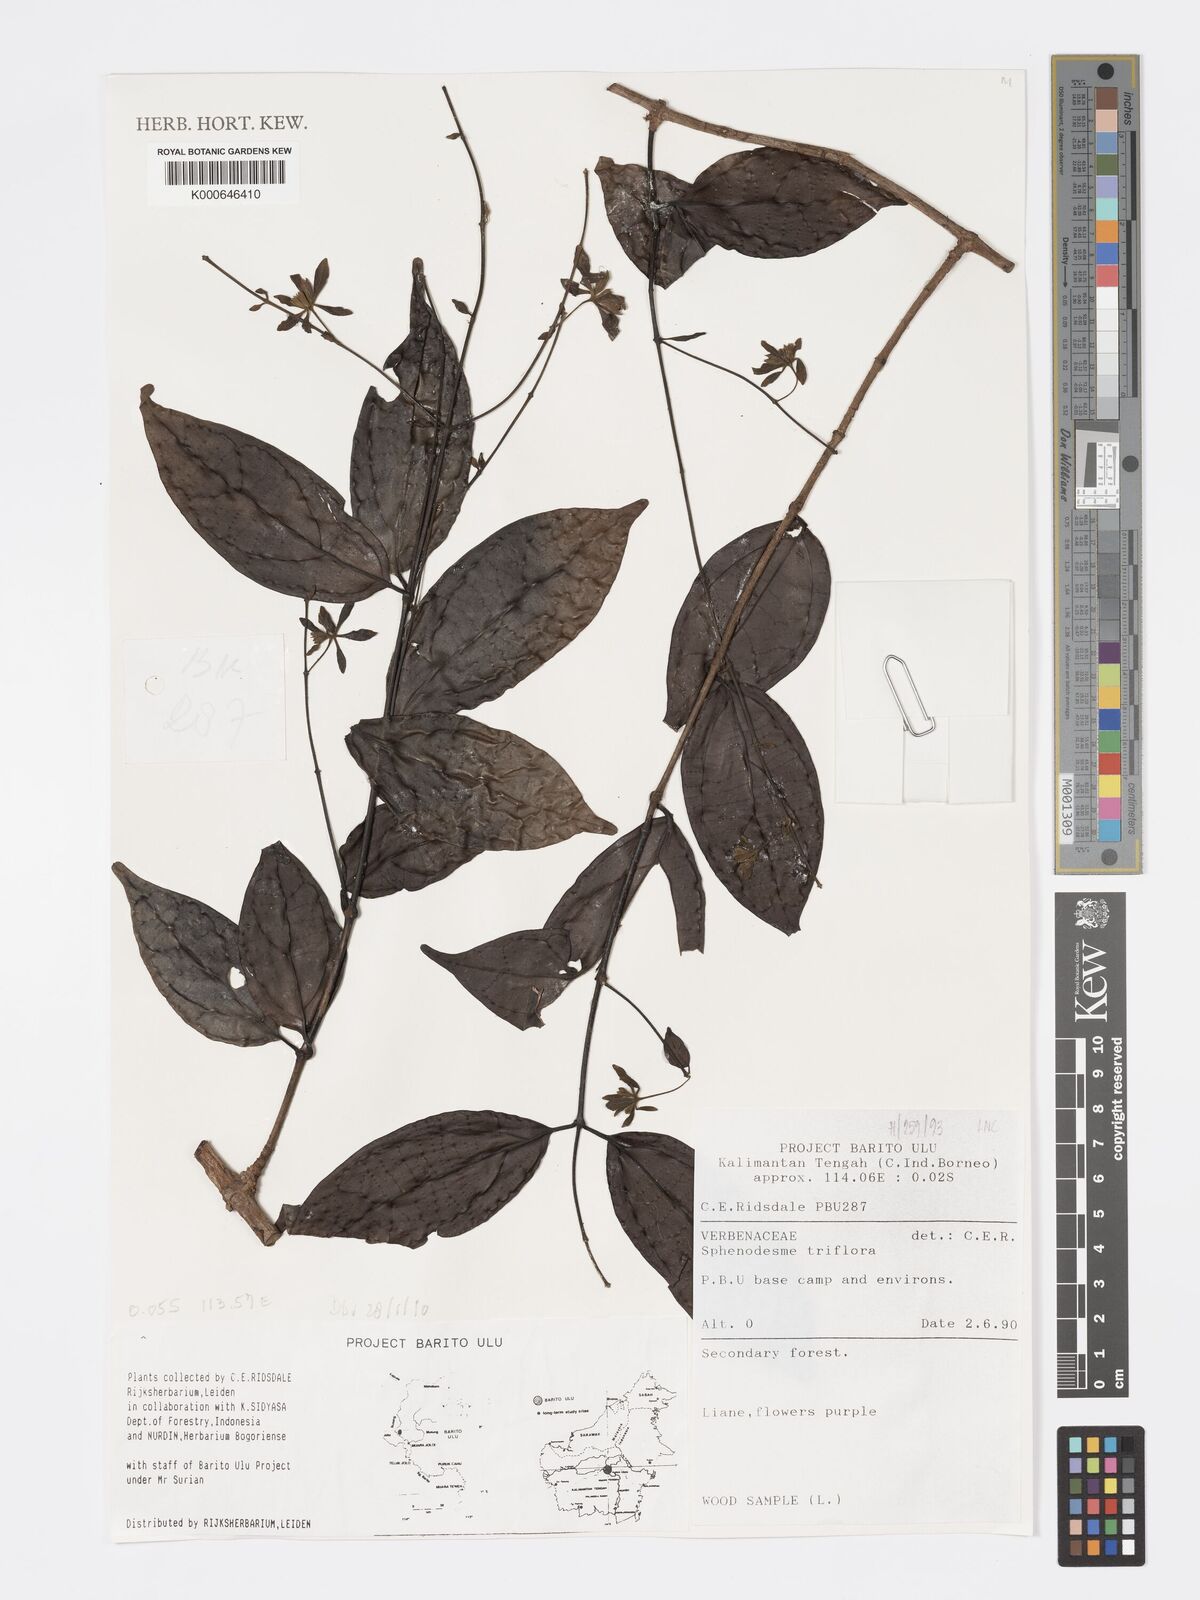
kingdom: Plantae
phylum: Tracheophyta
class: Magnoliopsida
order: Lamiales
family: Lamiaceae
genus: Sphenodesme
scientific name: Sphenodesme triflora
